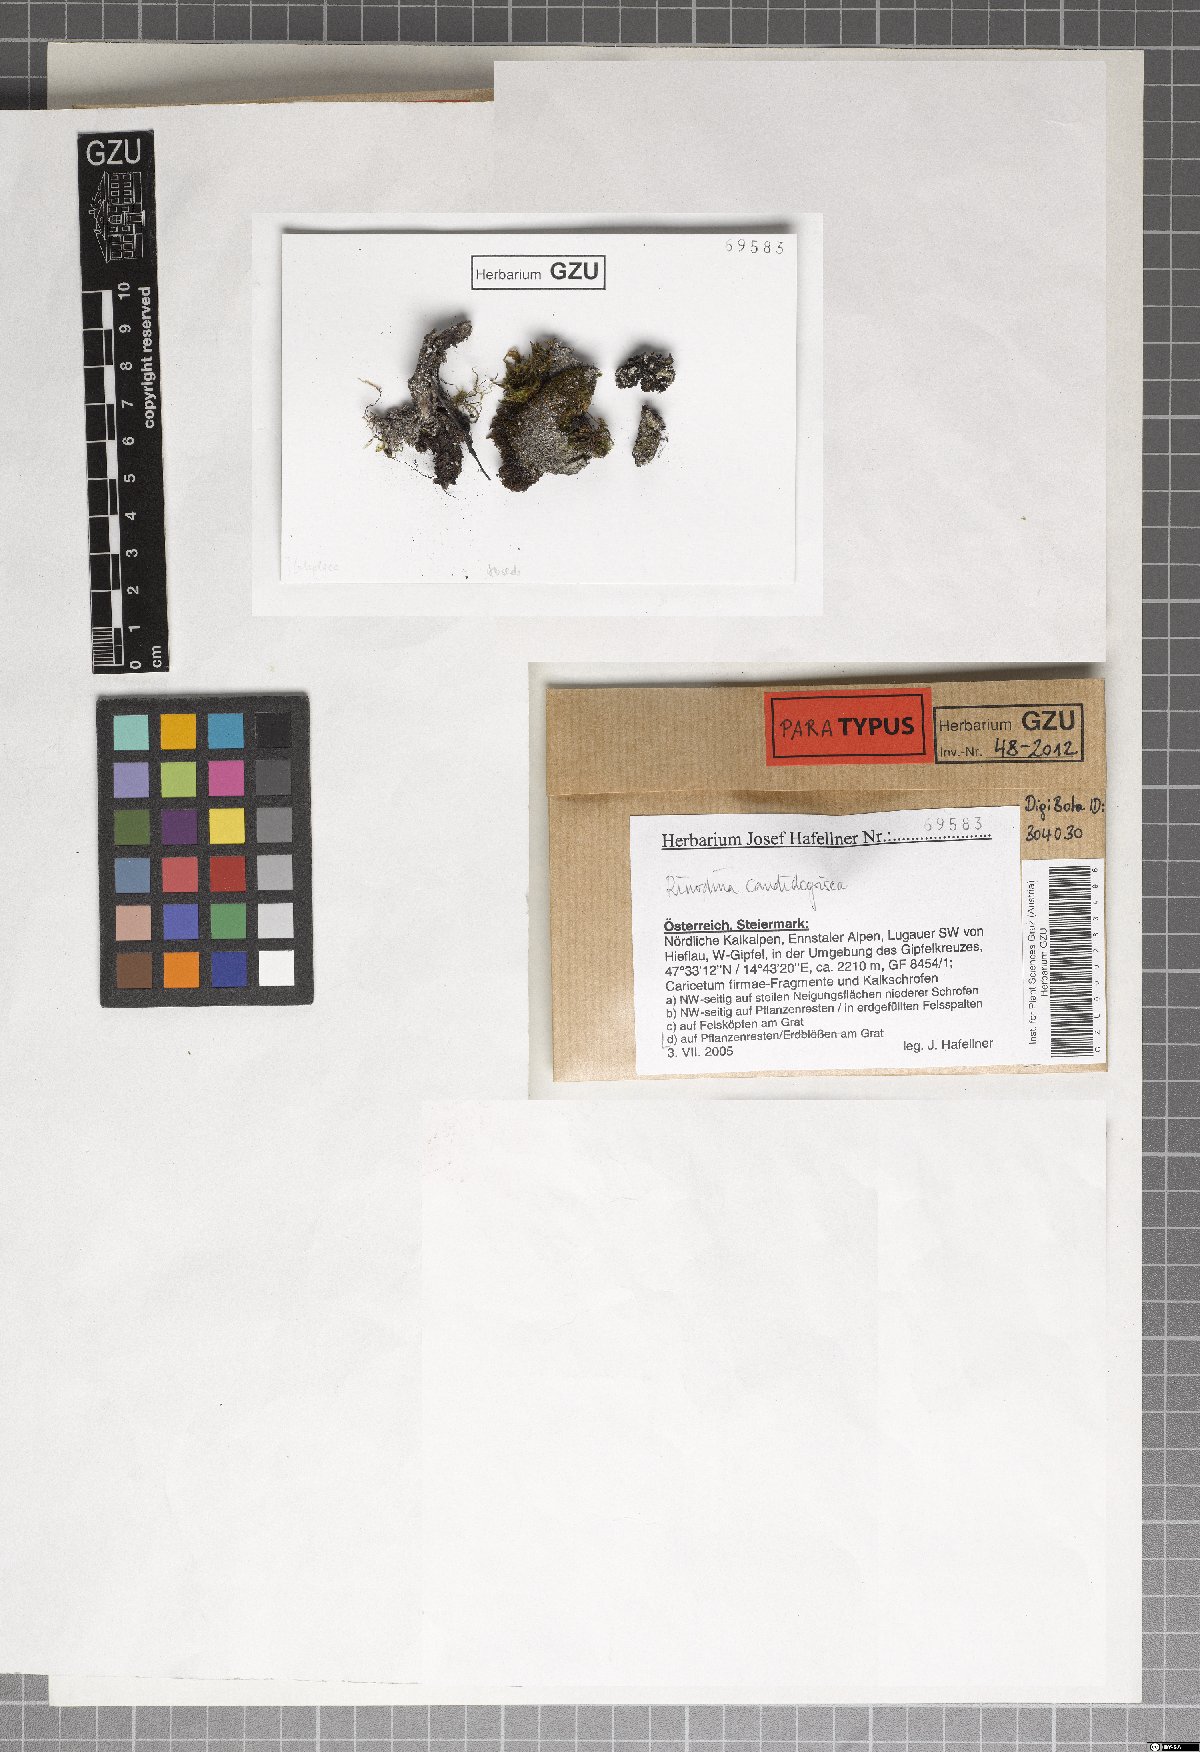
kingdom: Fungi
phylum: Ascomycota
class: Lecanoromycetes
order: Caliciales
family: Physciaceae
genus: Kudratovia
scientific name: Kudratovia candidogrisea
